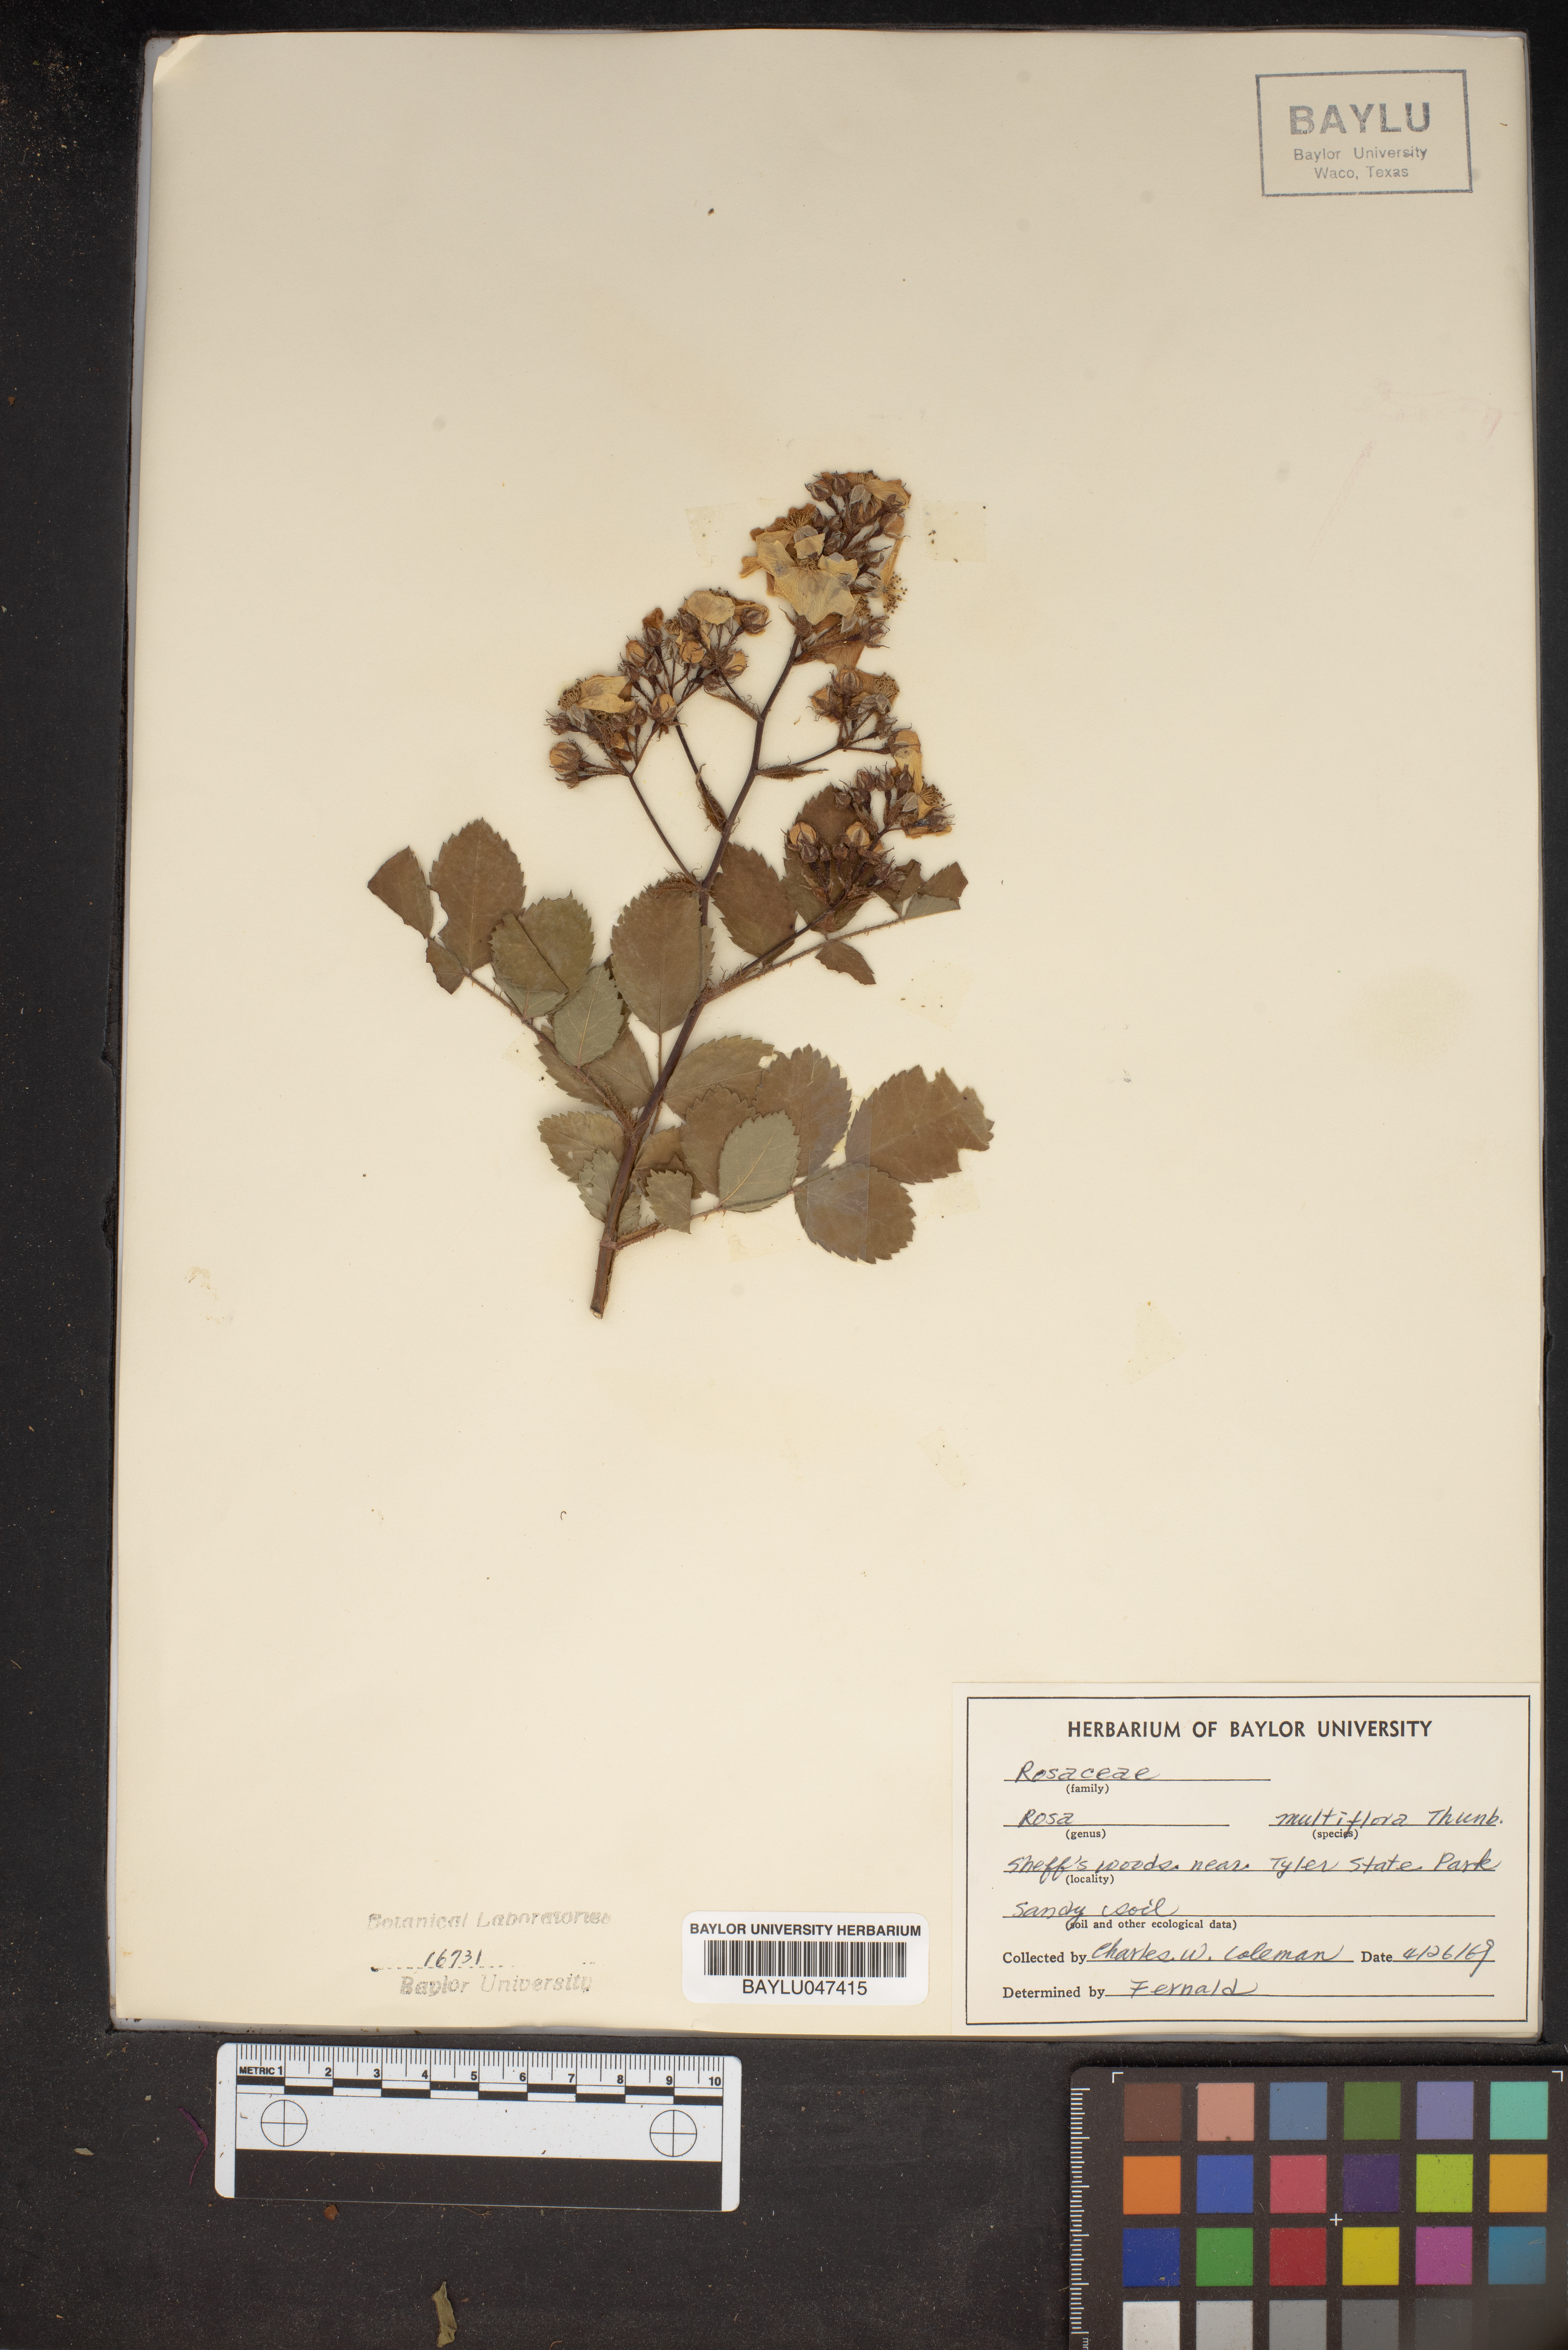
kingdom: Plantae
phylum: Tracheophyta
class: Magnoliopsida
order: Rosales
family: Rosaceae
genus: Rosa
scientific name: Rosa multiflora
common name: Multiflora rose
